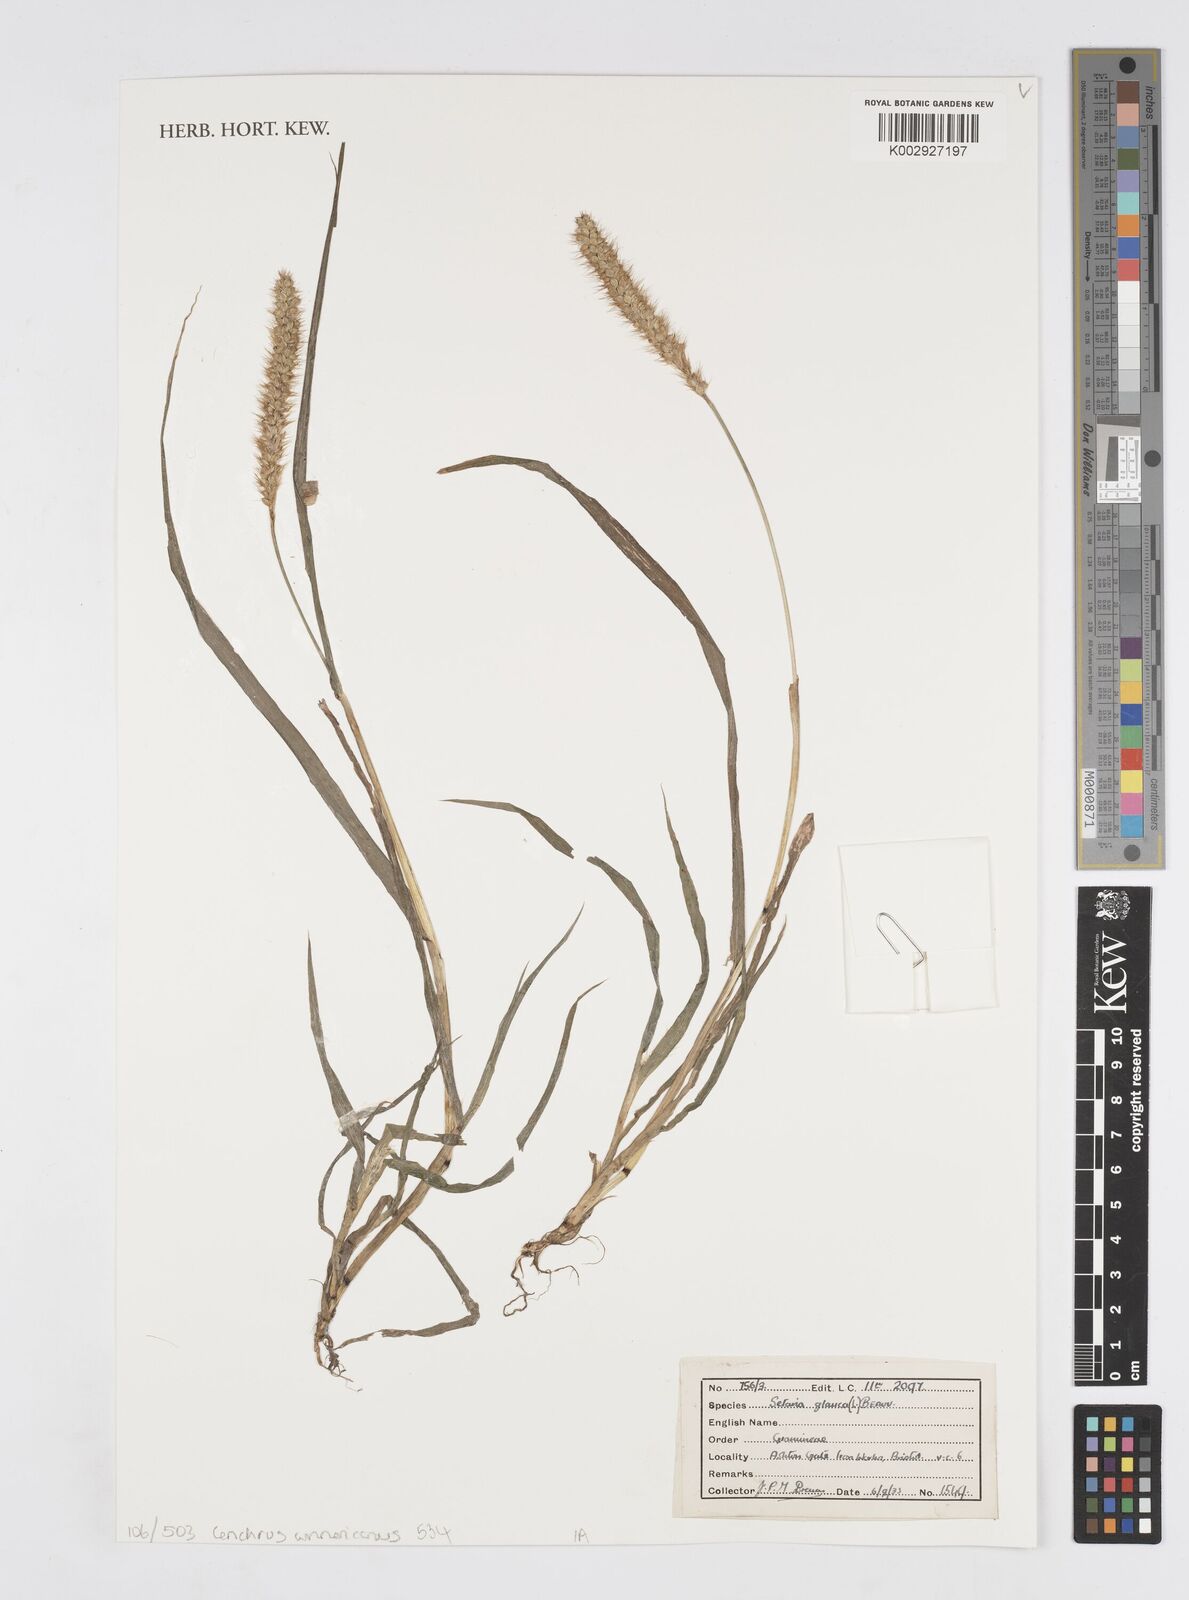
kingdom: Plantae
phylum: Tracheophyta
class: Liliopsida
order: Poales
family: Poaceae
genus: Cenchrus
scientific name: Cenchrus
